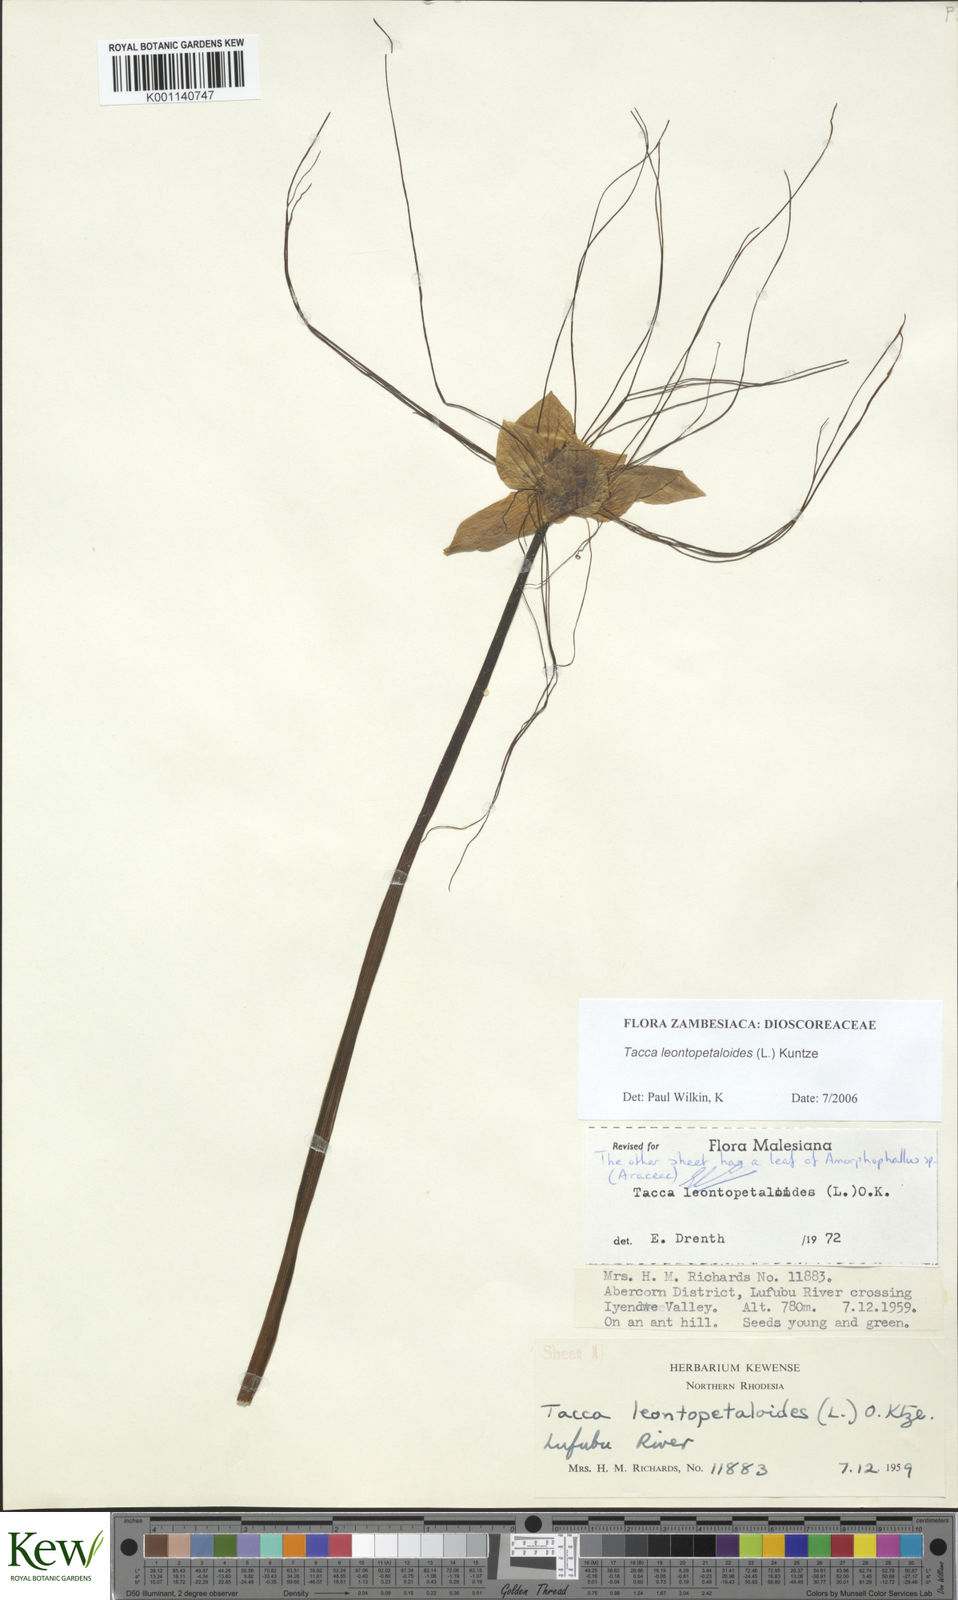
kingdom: Plantae
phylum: Tracheophyta
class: Liliopsida
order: Dioscoreales
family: Dioscoreaceae
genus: Tacca
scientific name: Tacca leontopetaloides
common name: Arrowroot
